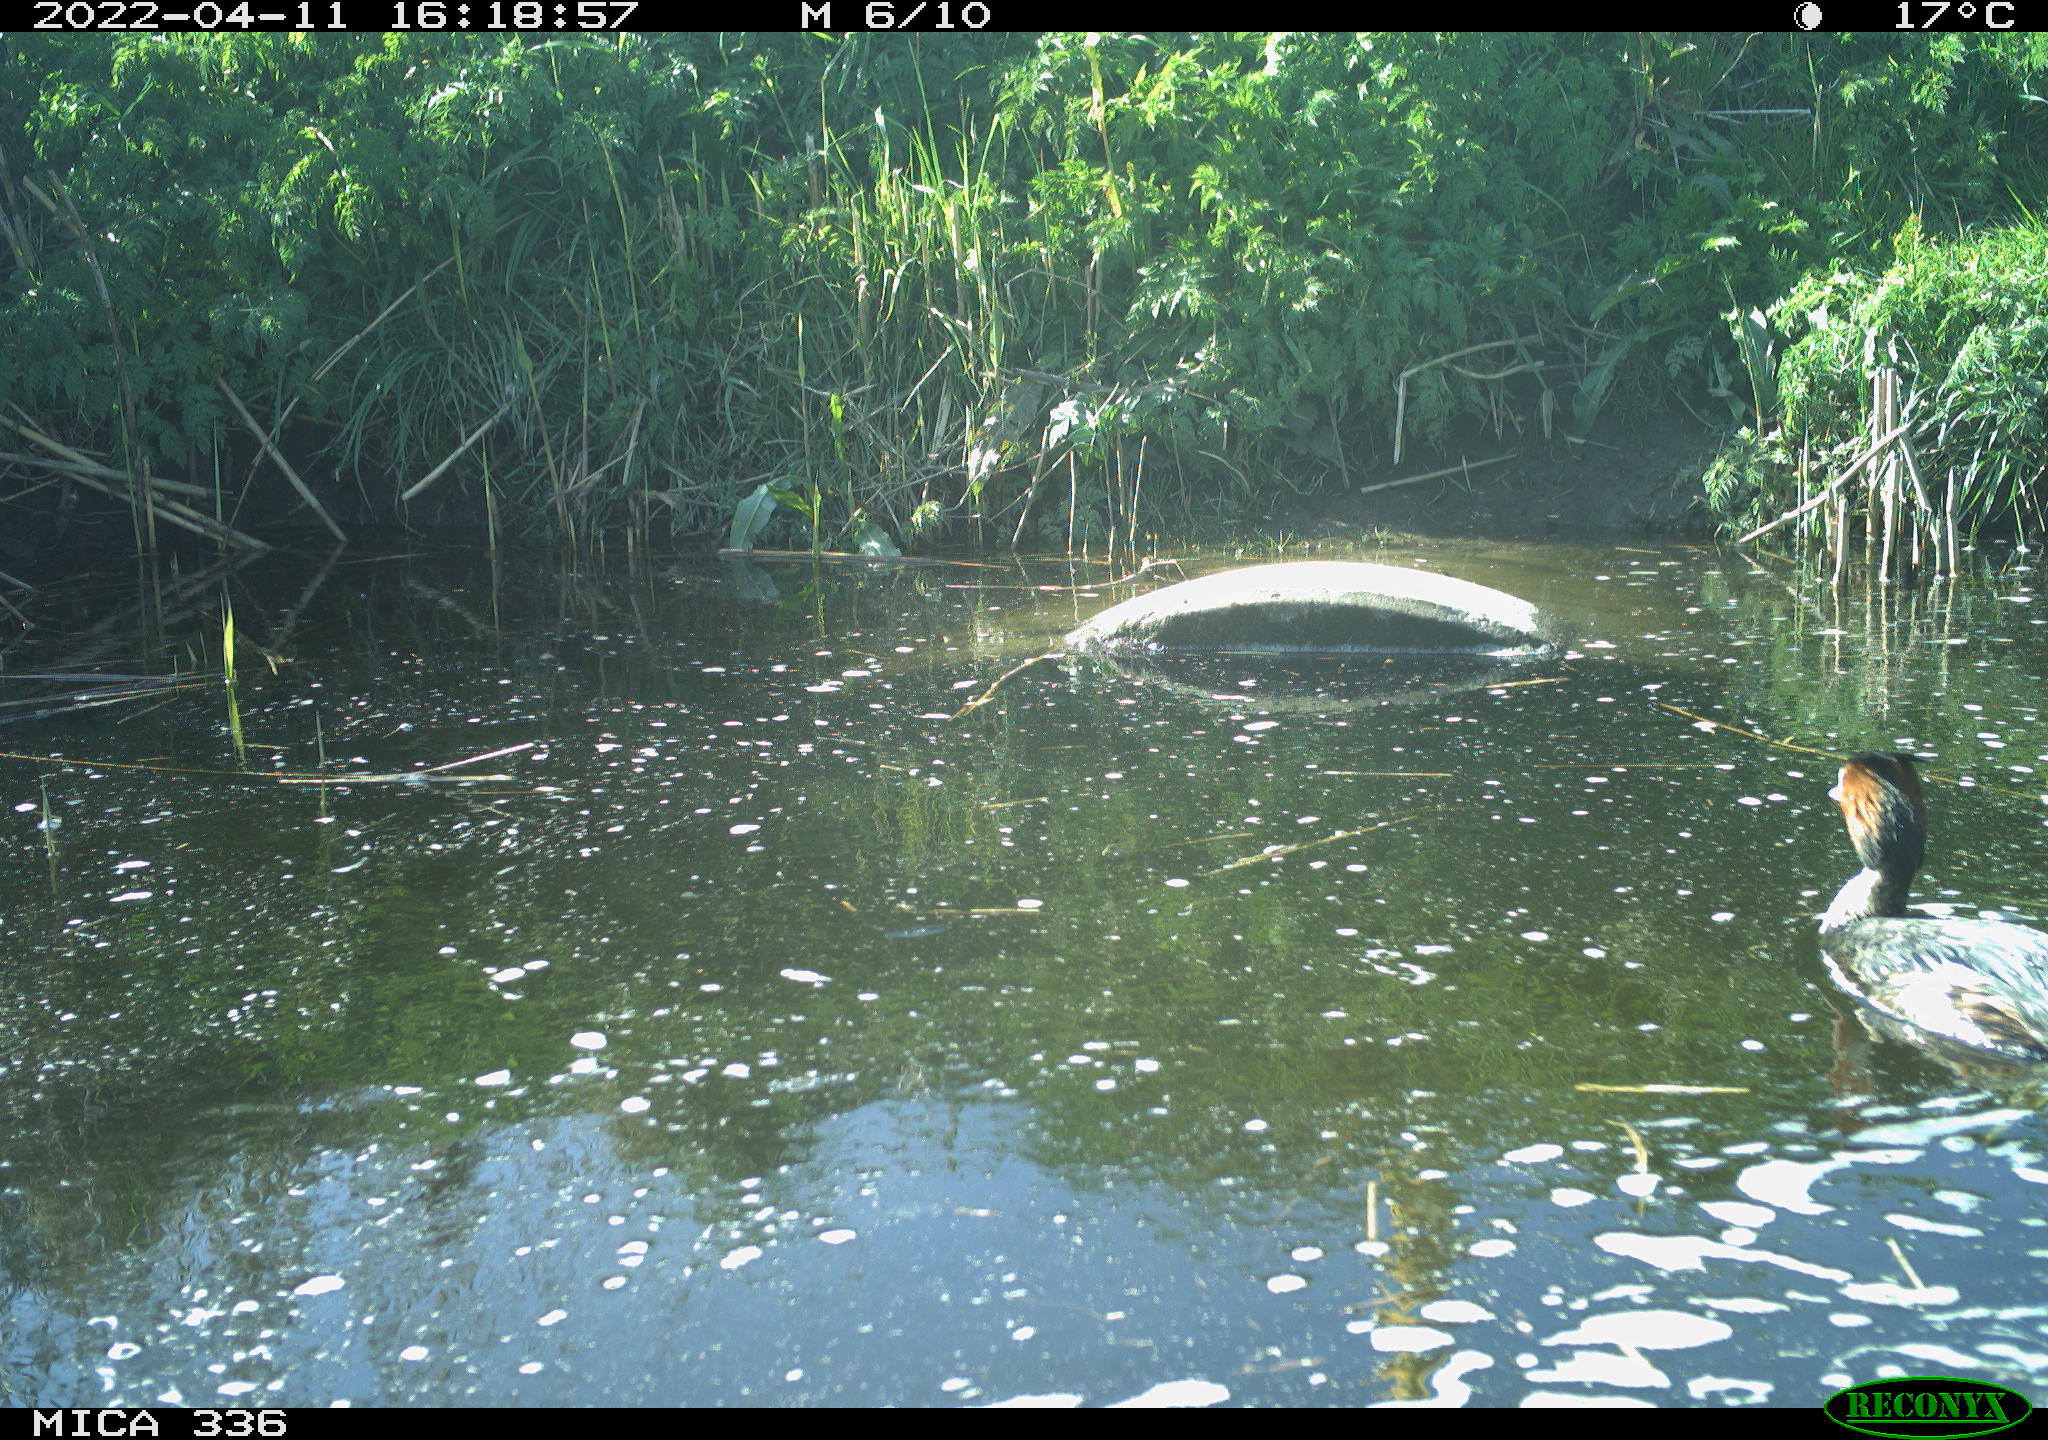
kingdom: Animalia
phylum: Chordata
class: Aves
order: Podicipediformes
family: Podicipedidae
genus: Podiceps
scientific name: Podiceps cristatus
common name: Great crested grebe
